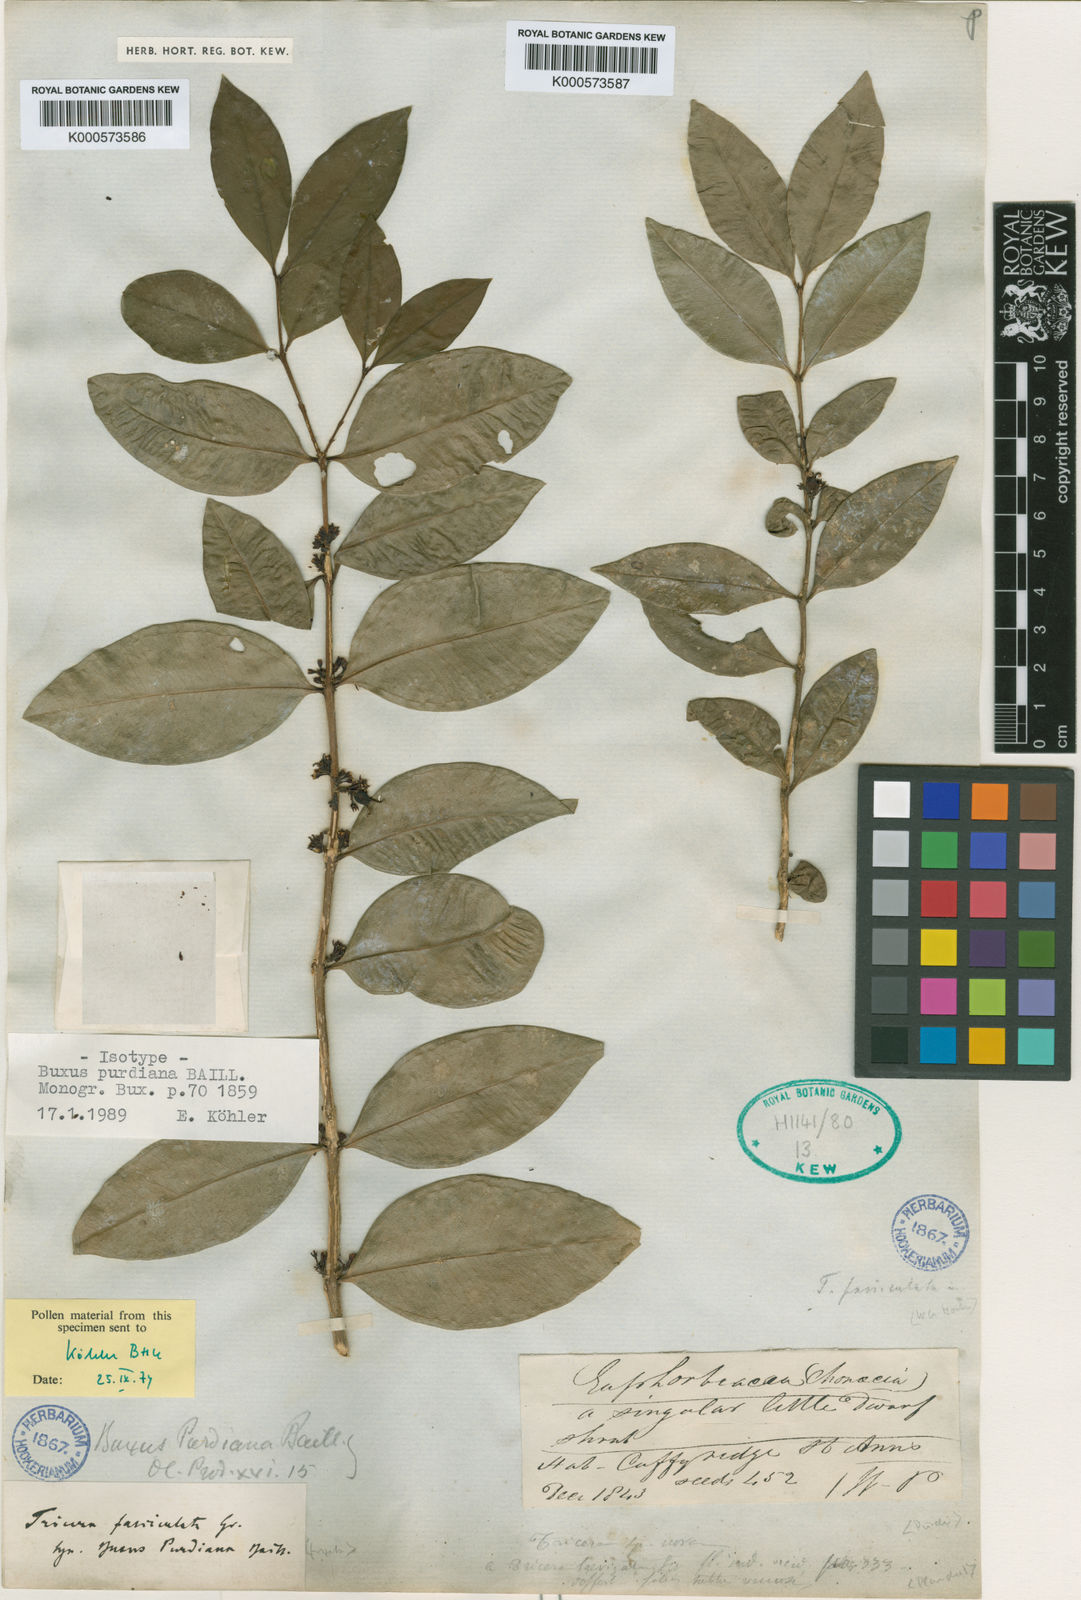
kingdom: Plantae
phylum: Tracheophyta
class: Magnoliopsida
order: Buxales
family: Buxaceae
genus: Buxus
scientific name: Buxus laevigata
